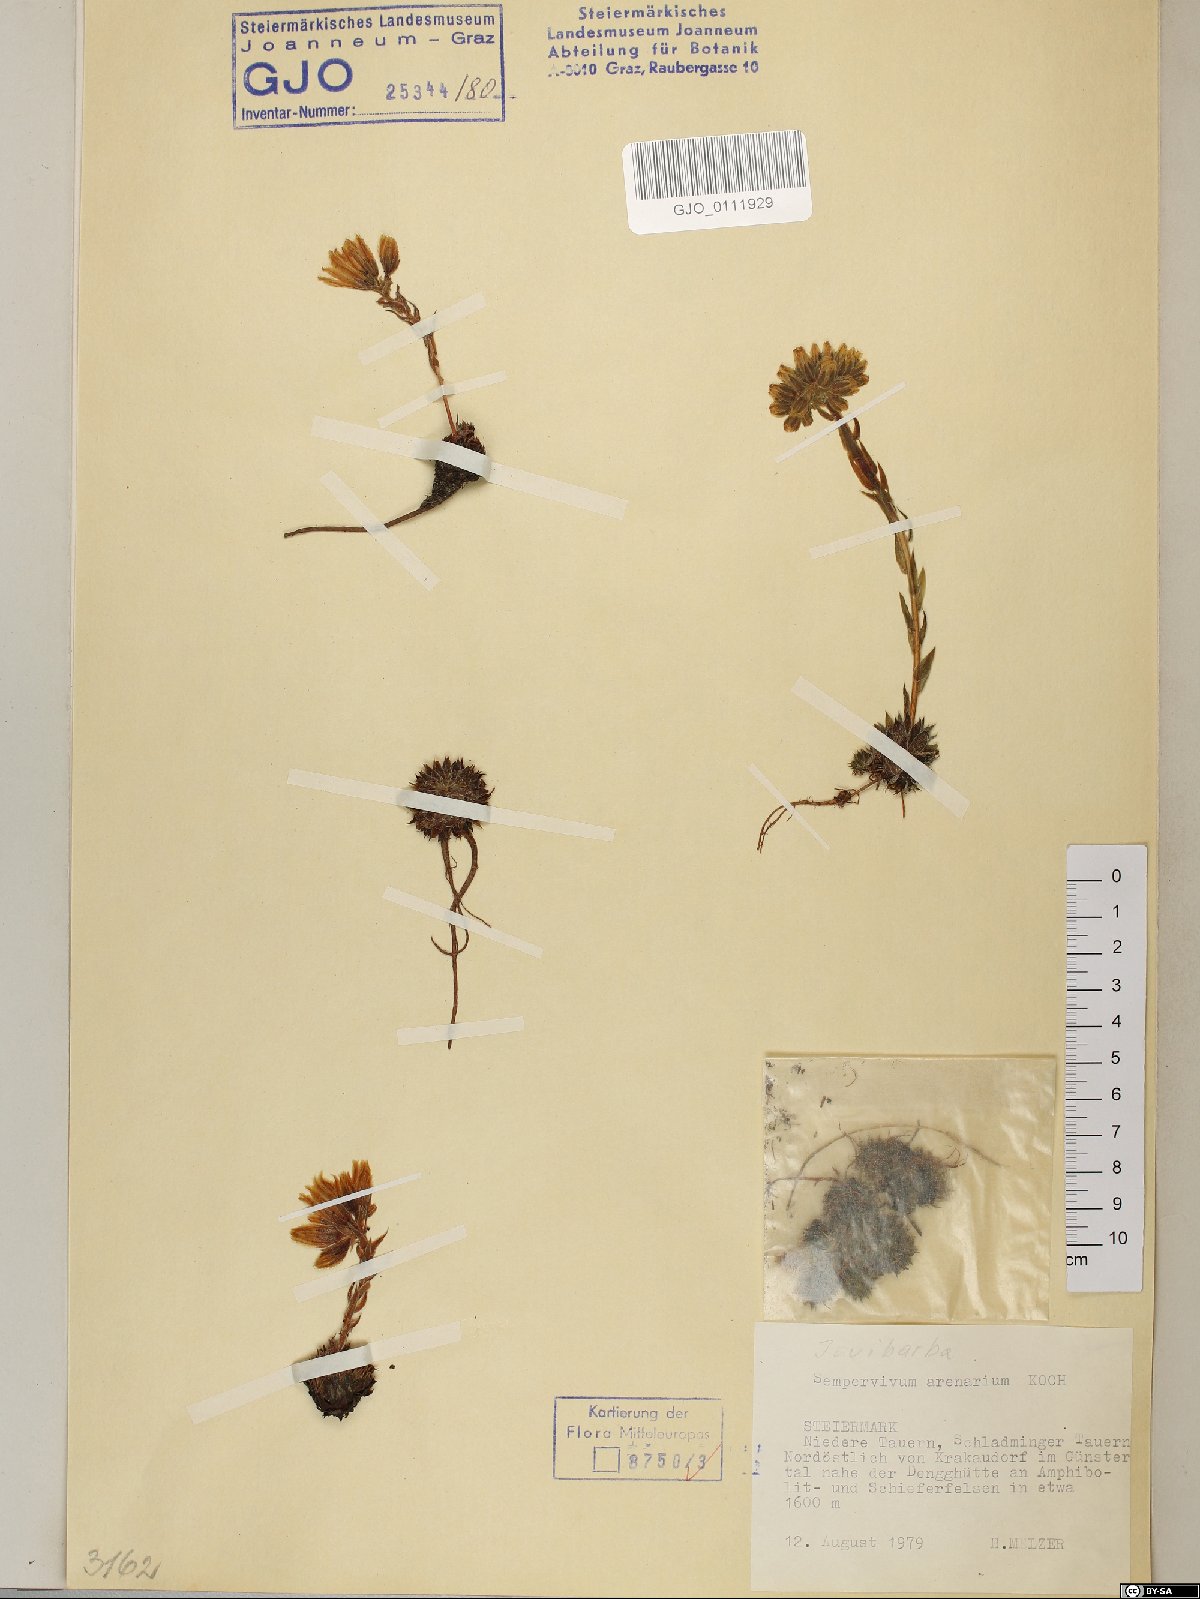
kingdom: Plantae
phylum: Tracheophyta
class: Magnoliopsida
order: Saxifragales
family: Crassulaceae
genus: Sempervivum
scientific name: Sempervivum globiferum
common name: Rolling hen-and-chicks
